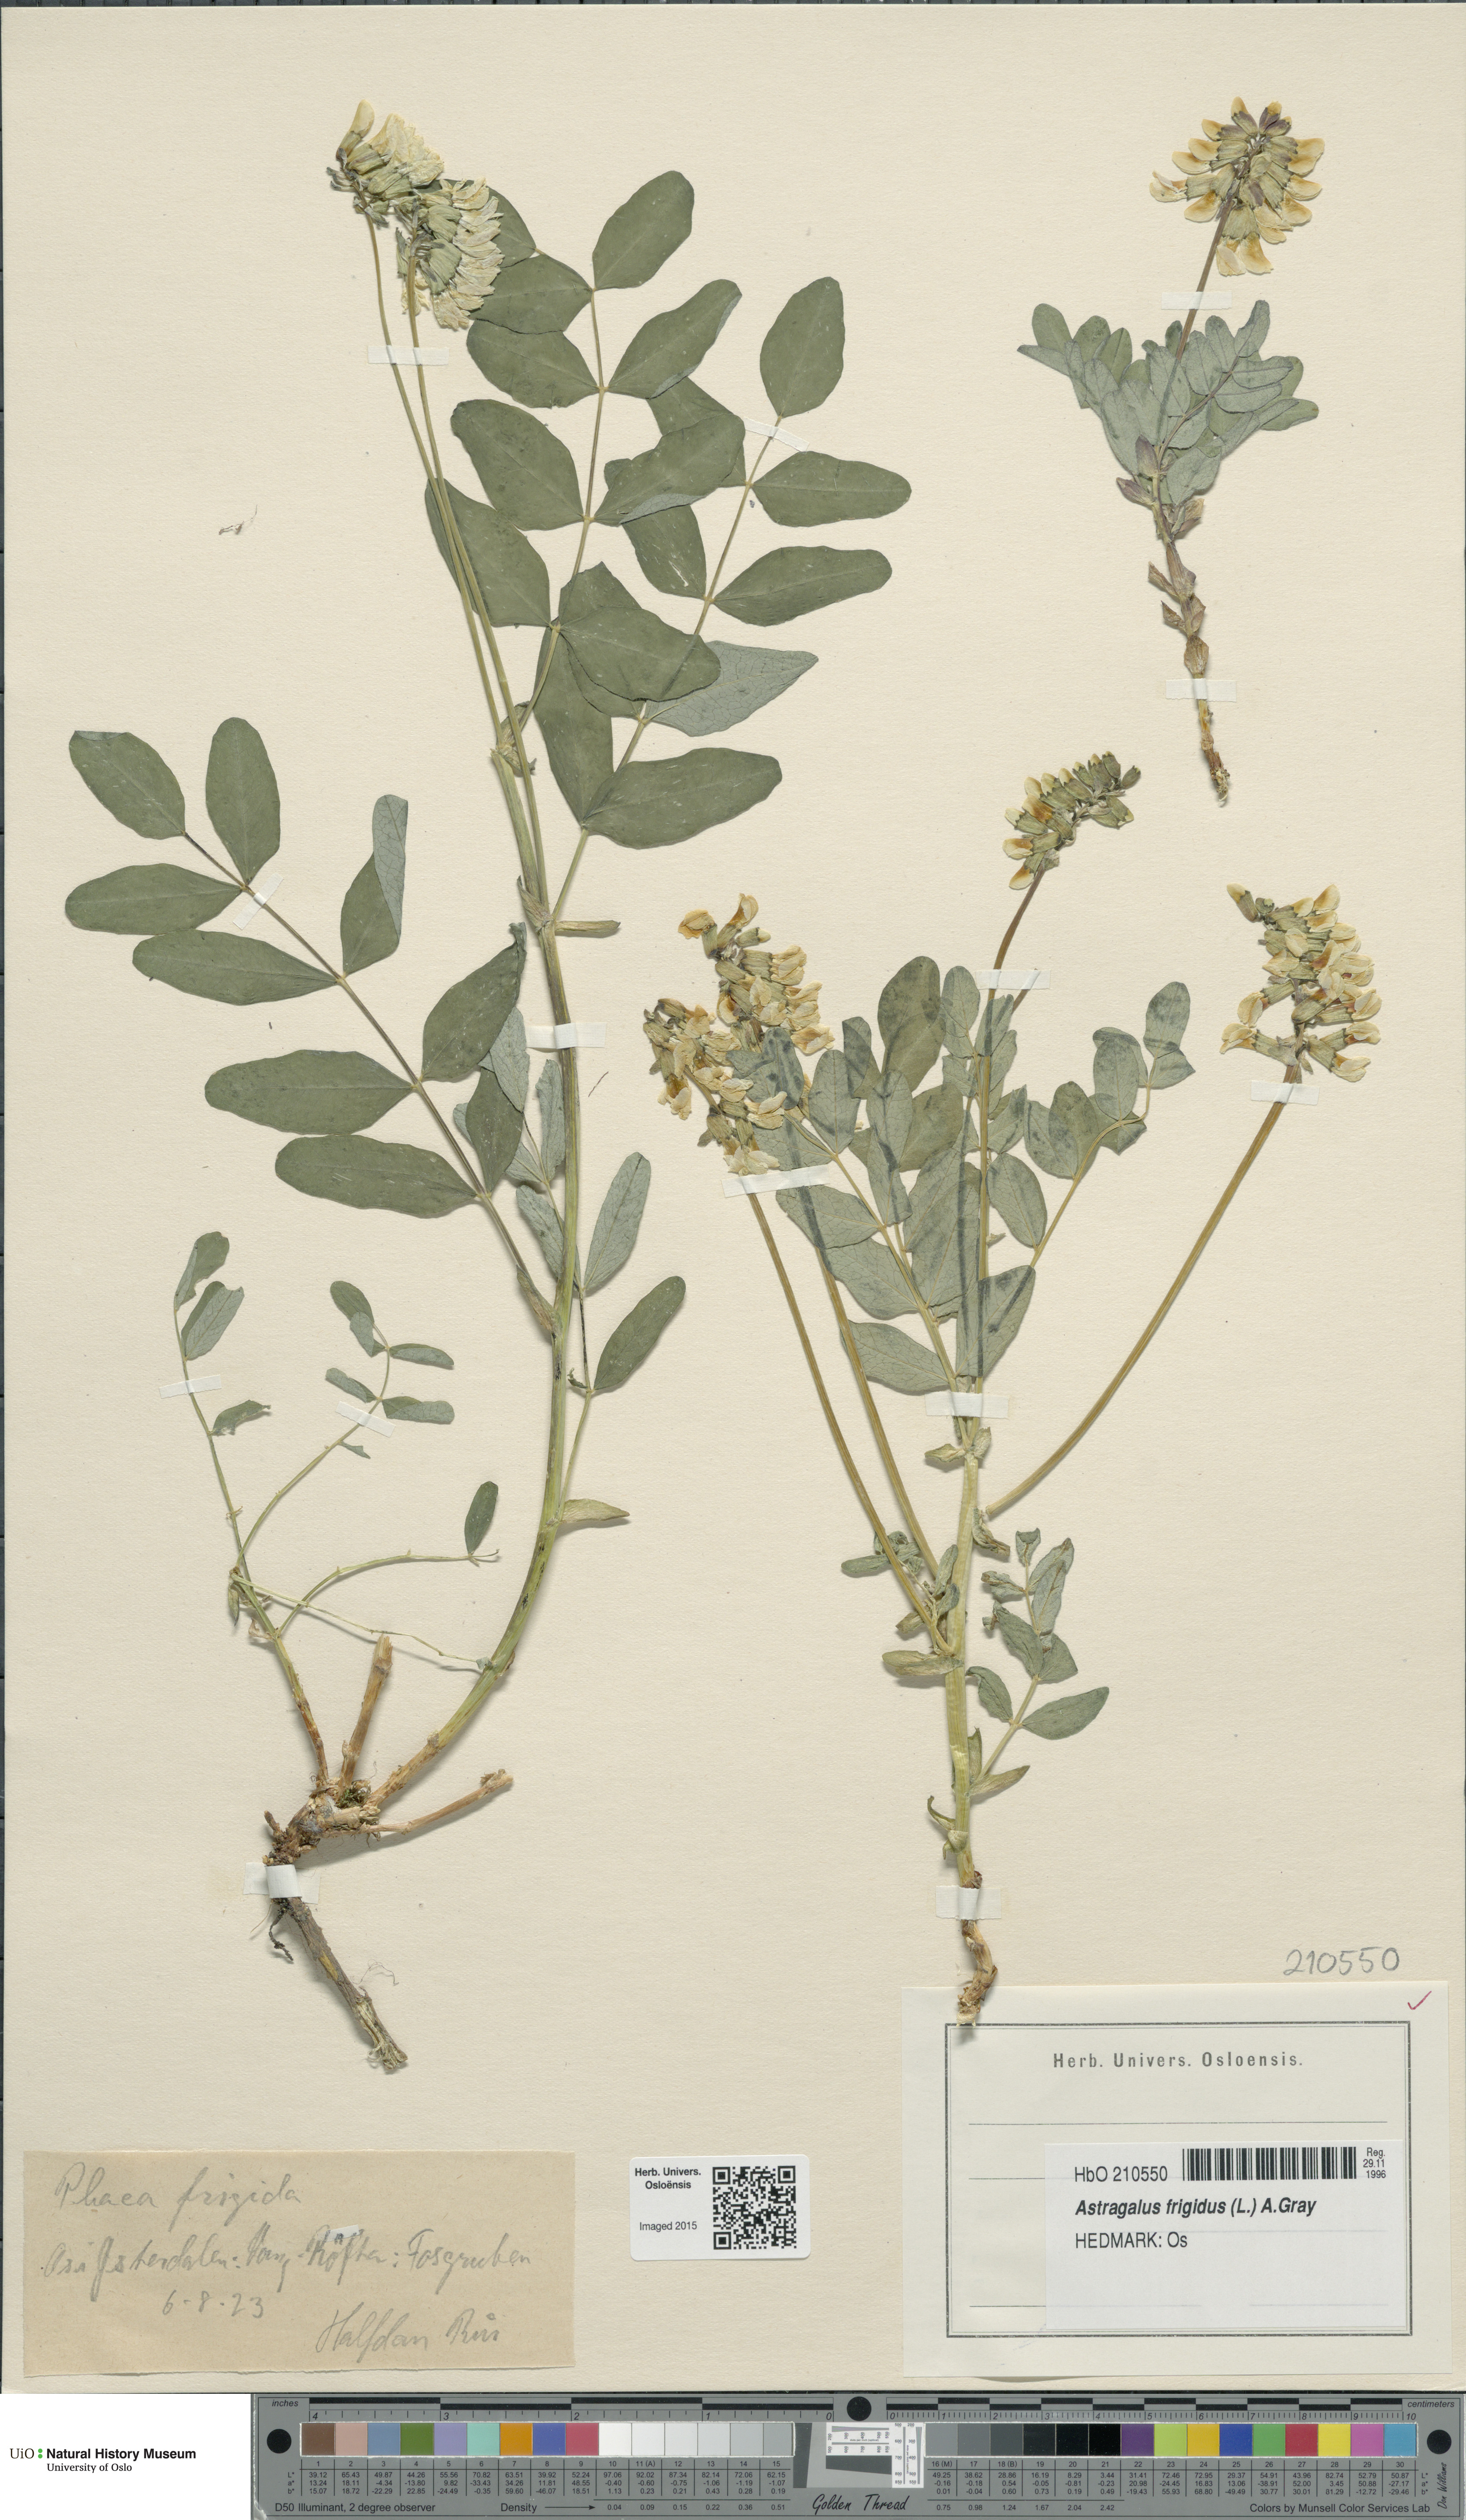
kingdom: Plantae
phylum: Tracheophyta
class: Magnoliopsida
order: Fabales
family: Fabaceae
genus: Astragalus
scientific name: Astragalus frigidus
